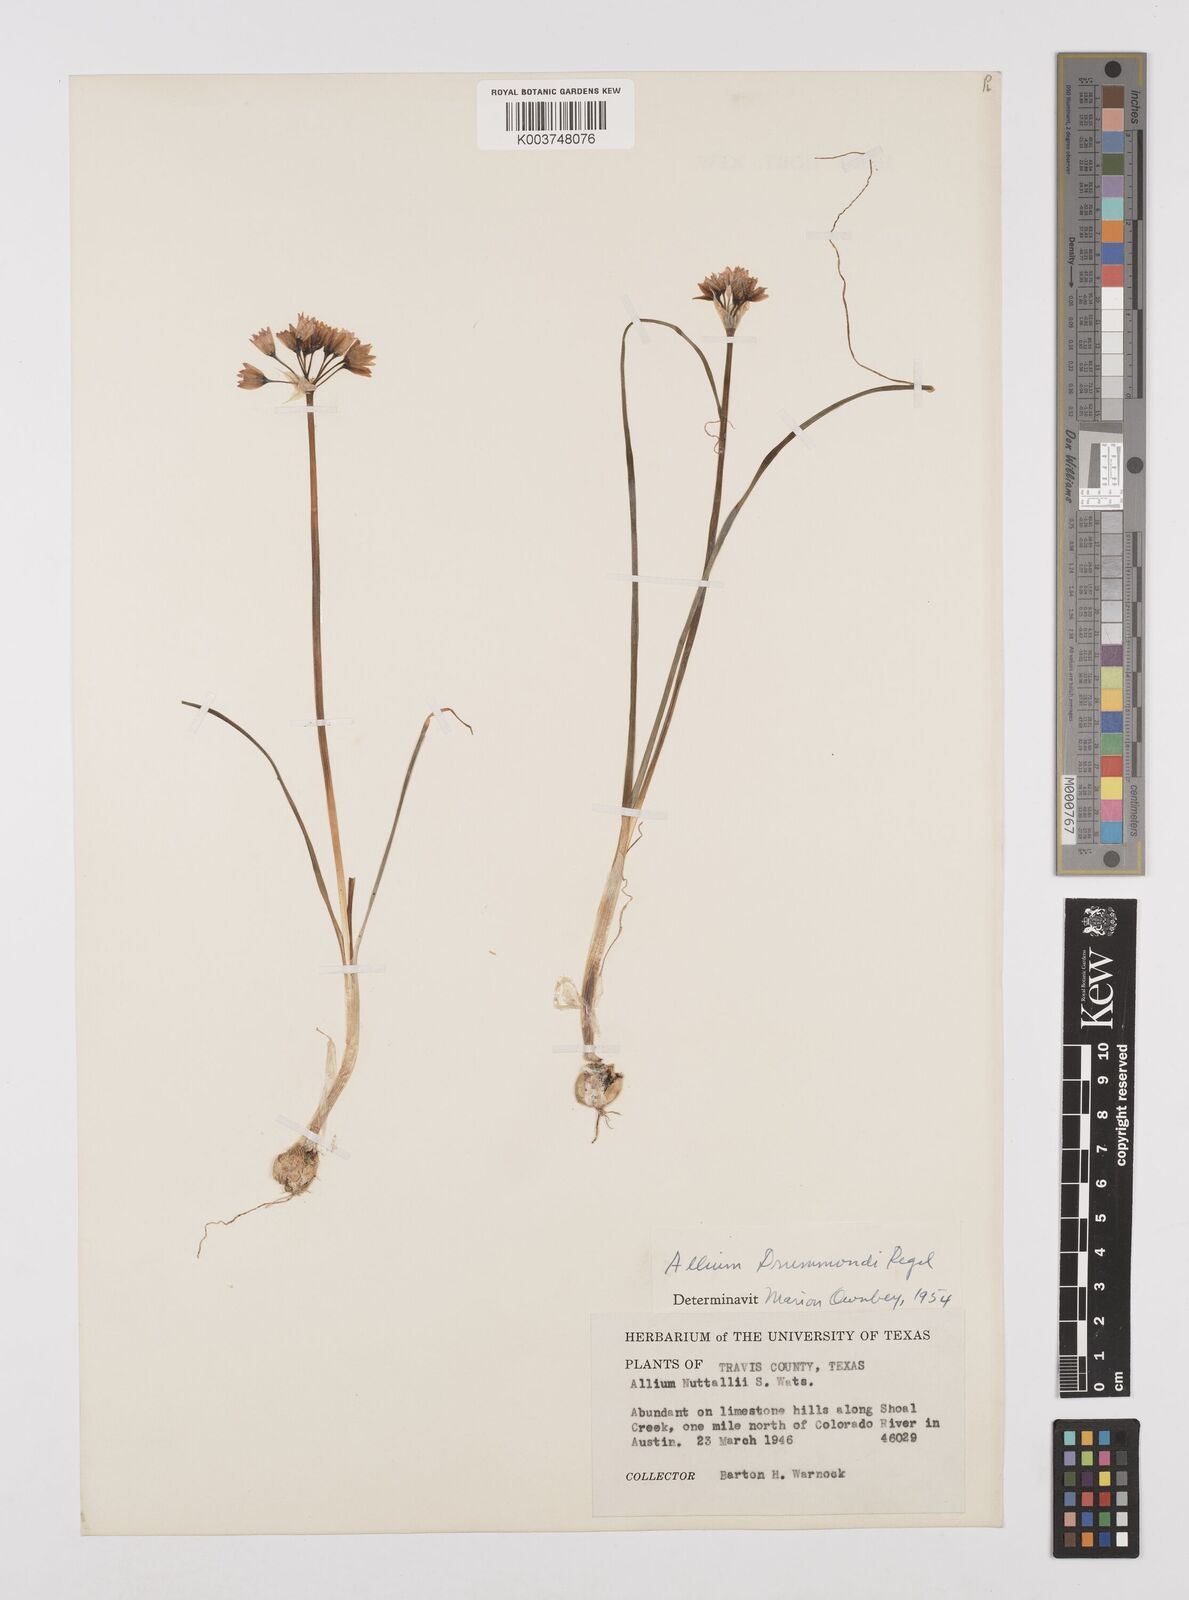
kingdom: Plantae
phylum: Tracheophyta
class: Liliopsida
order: Asparagales
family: Amaryllidaceae
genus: Allium
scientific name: Allium drummondii
